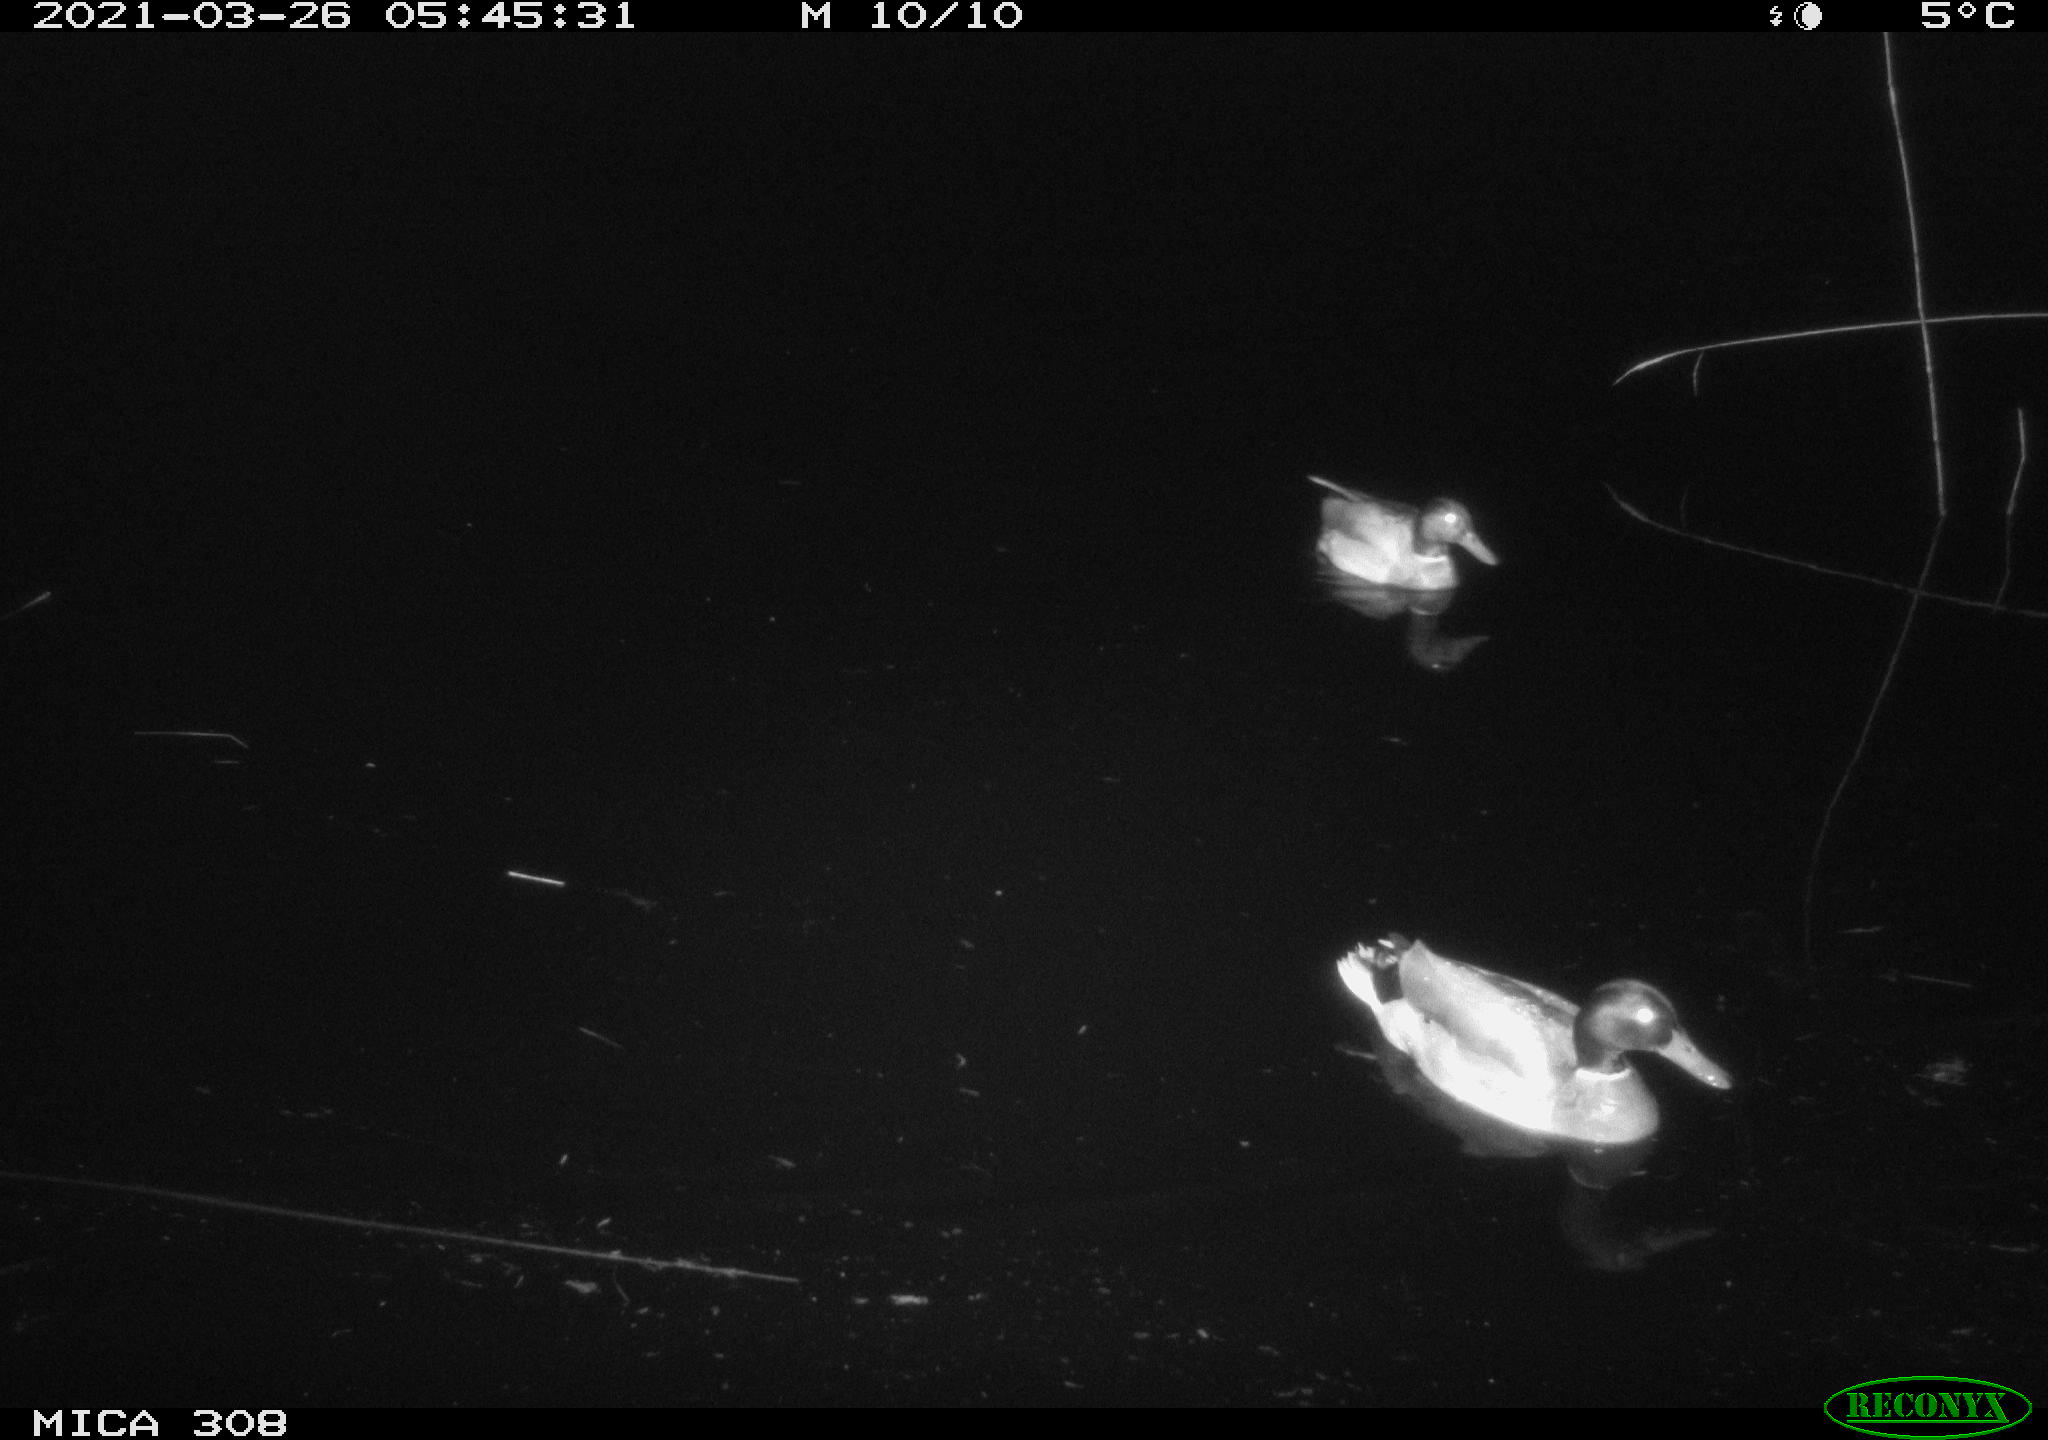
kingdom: Animalia
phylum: Chordata
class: Aves
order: Anseriformes
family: Anatidae
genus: Anas
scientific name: Anas platyrhynchos
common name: Mallard
